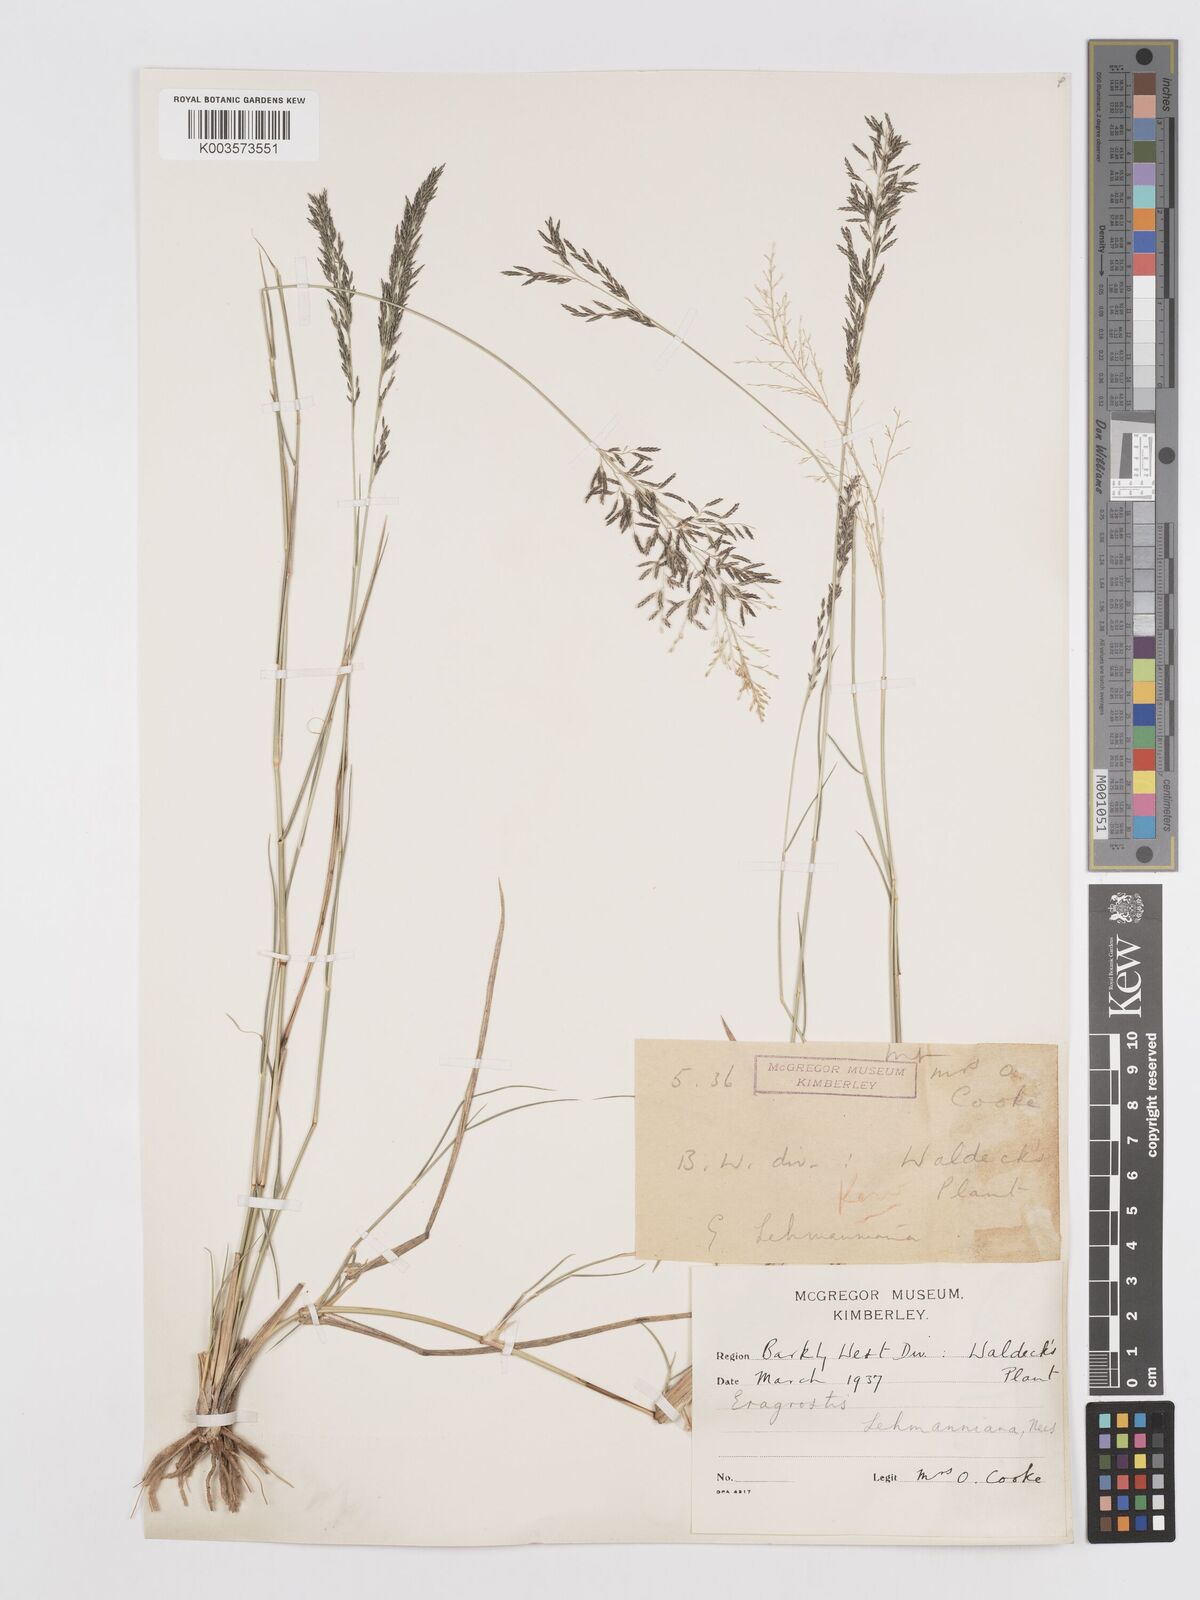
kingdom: Plantae
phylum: Tracheophyta
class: Liliopsida
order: Poales
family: Poaceae
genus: Eragrostis
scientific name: Eragrostis lehmanniana
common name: Lehmann lovegrass
